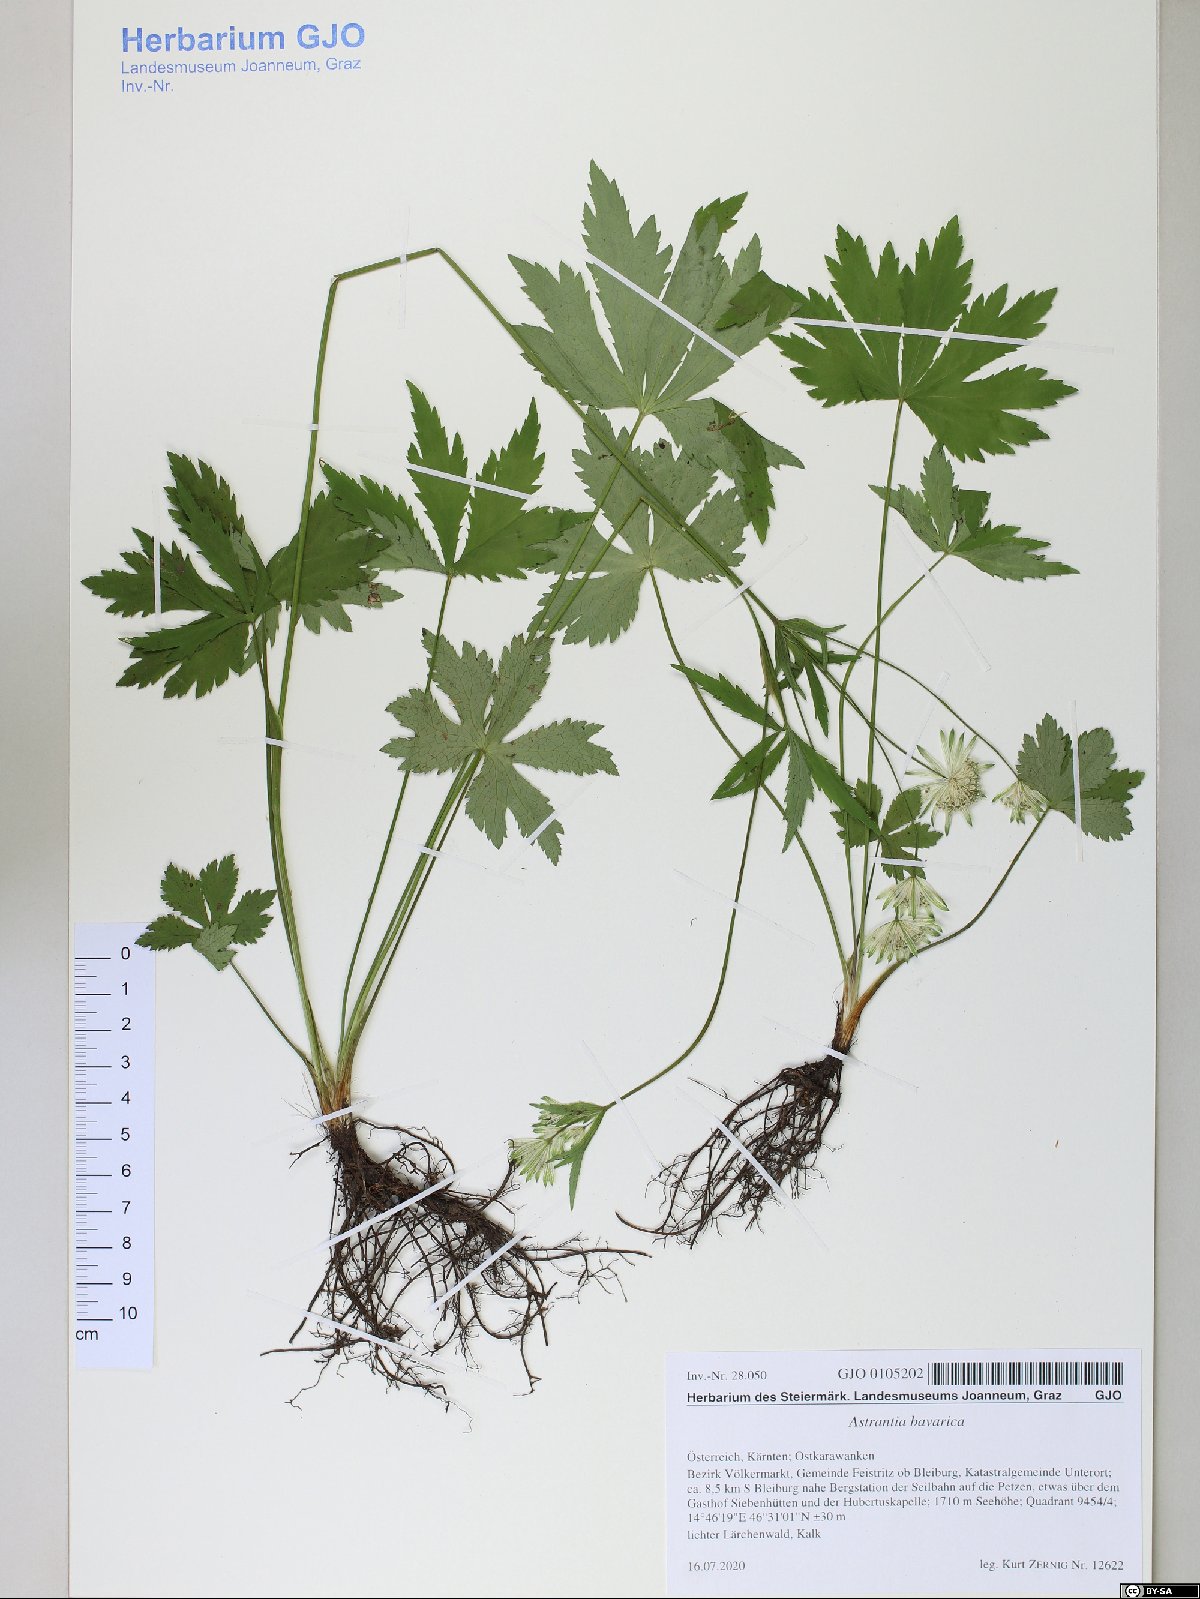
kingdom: Plantae
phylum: Tracheophyta
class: Magnoliopsida
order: Apiales
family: Apiaceae
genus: Astrantia
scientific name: Astrantia bavarica
